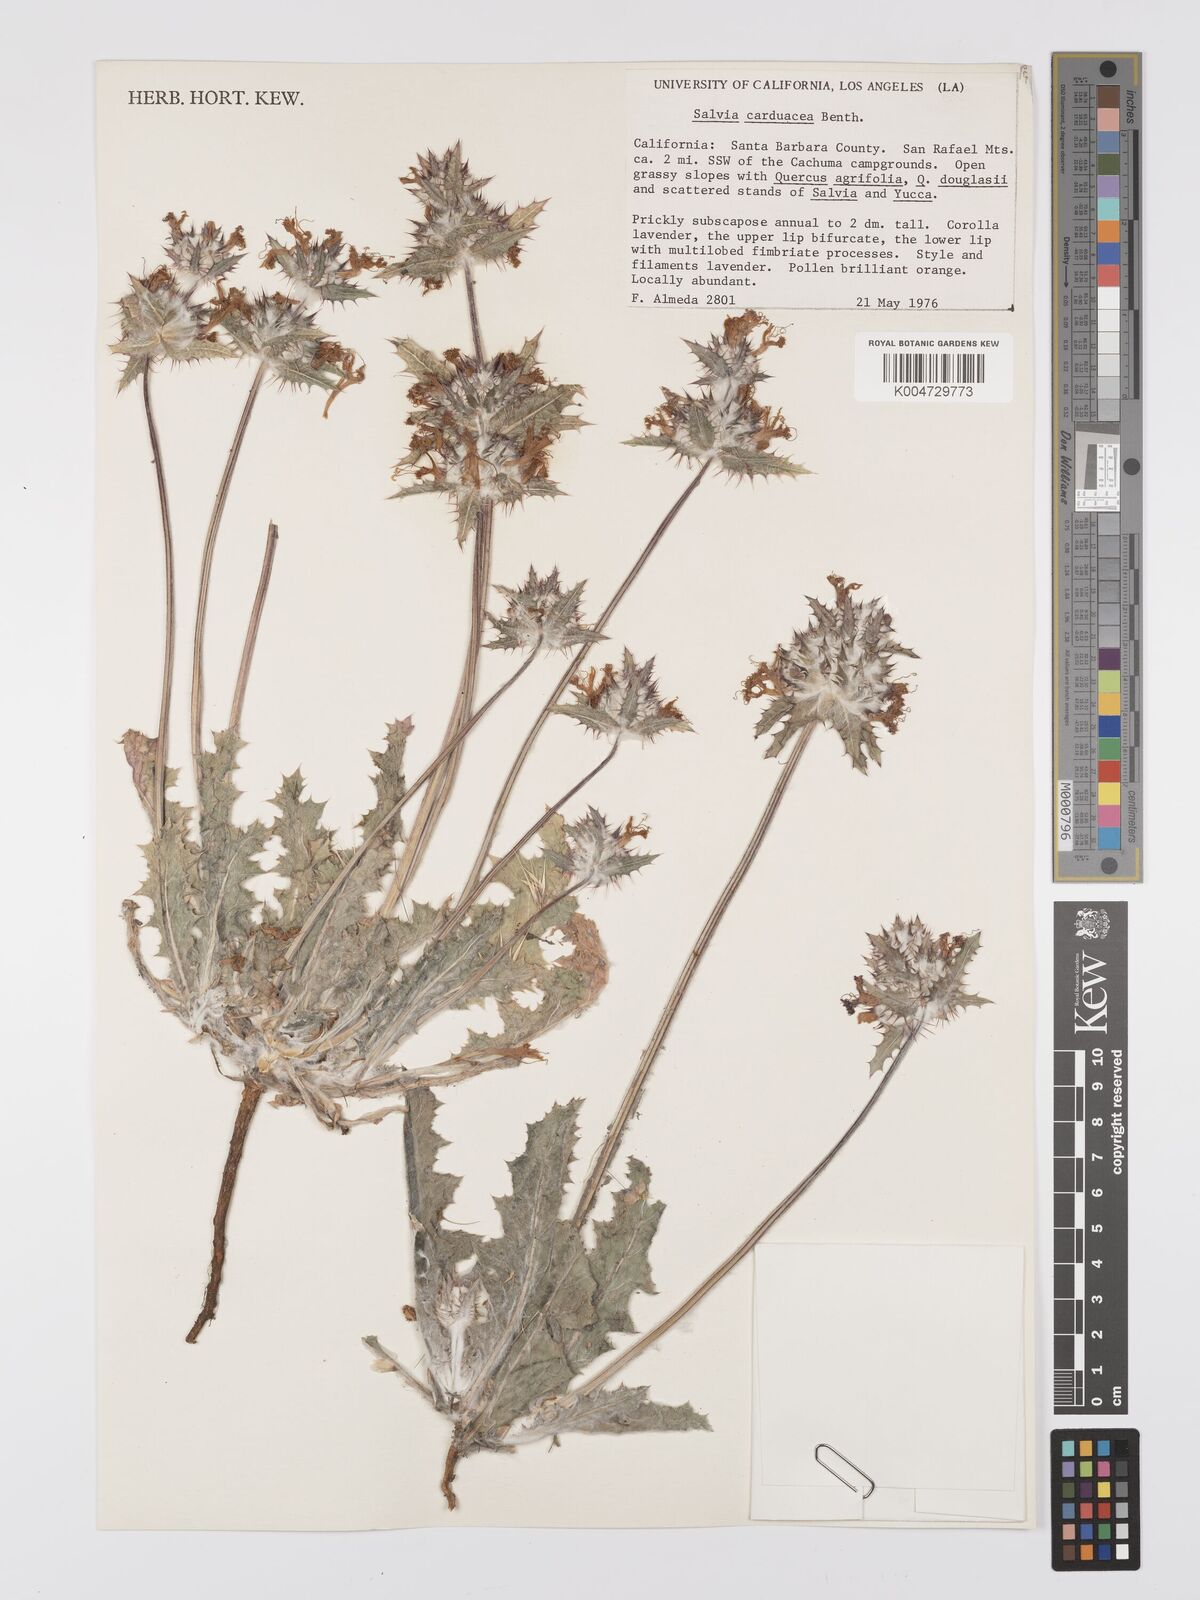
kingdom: Plantae
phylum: Tracheophyta
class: Magnoliopsida
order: Lamiales
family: Lamiaceae
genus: Salvia
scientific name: Salvia carduacea
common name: Thistle sage
